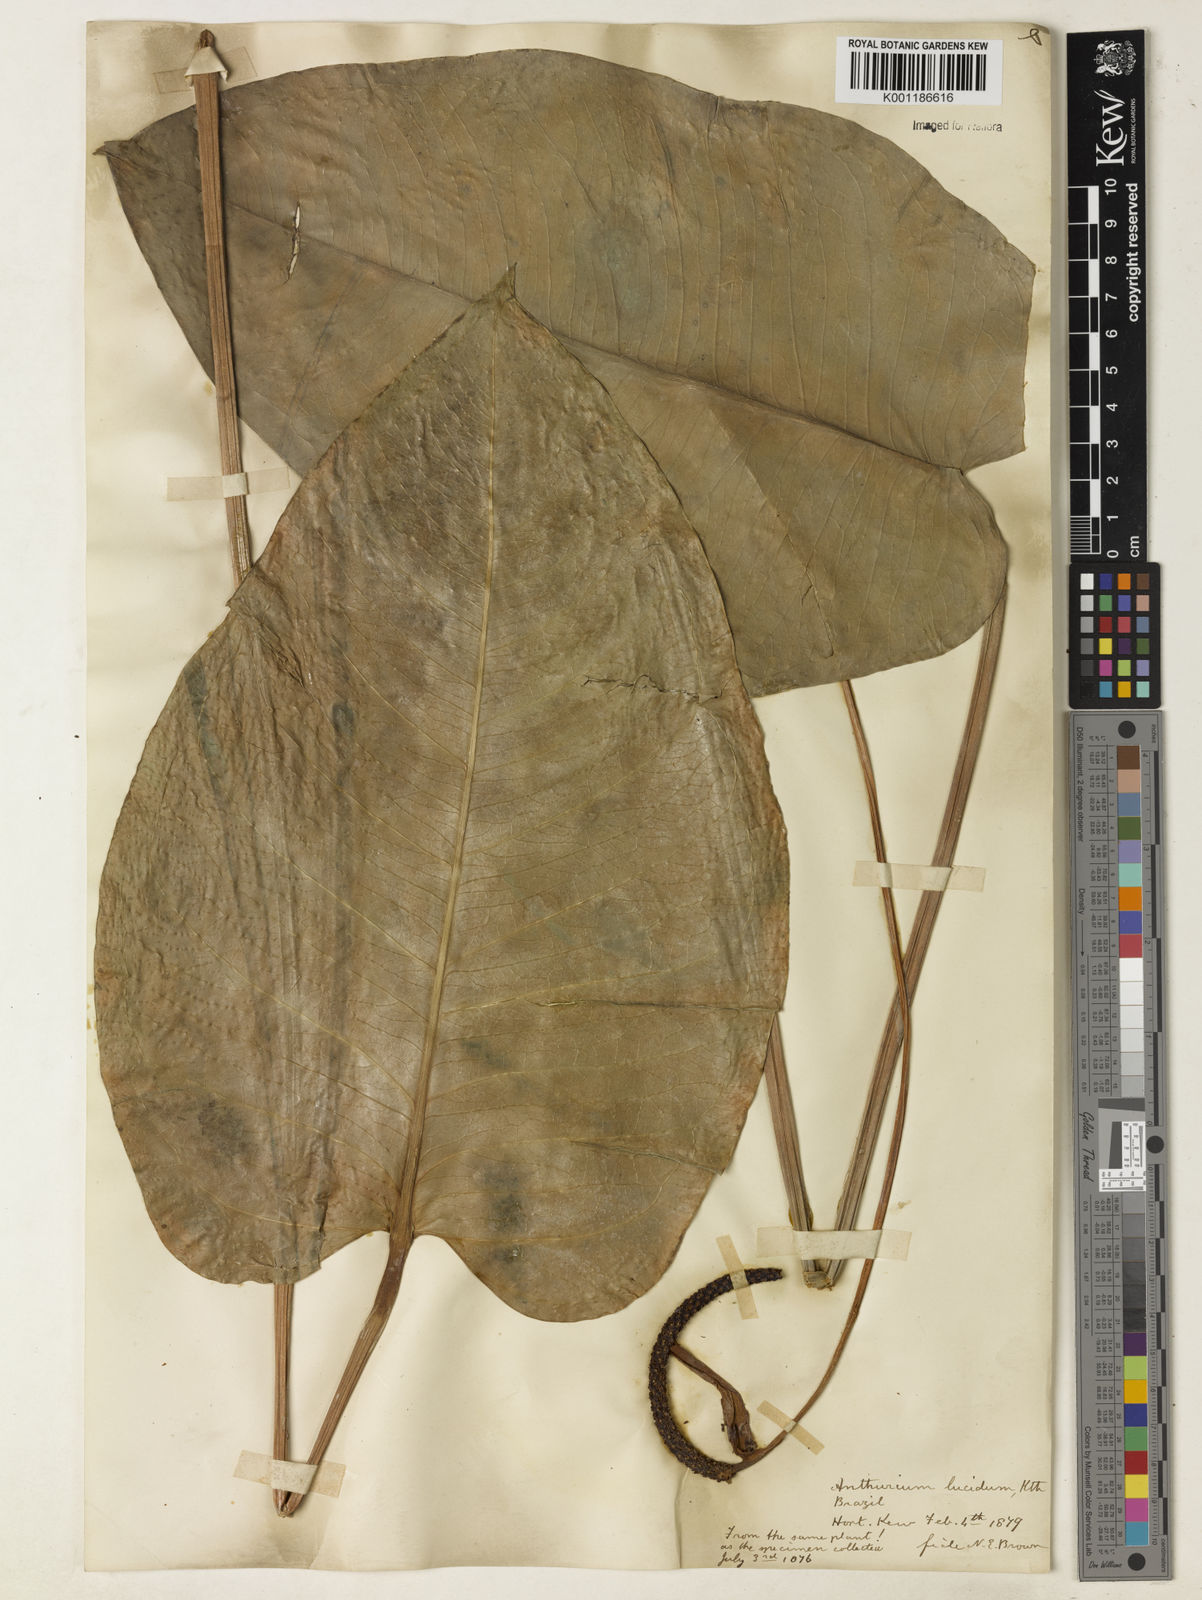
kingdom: Plantae
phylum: Tracheophyta
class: Liliopsida
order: Alismatales
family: Araceae
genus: Anthurium
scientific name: Anthurium lucidum
